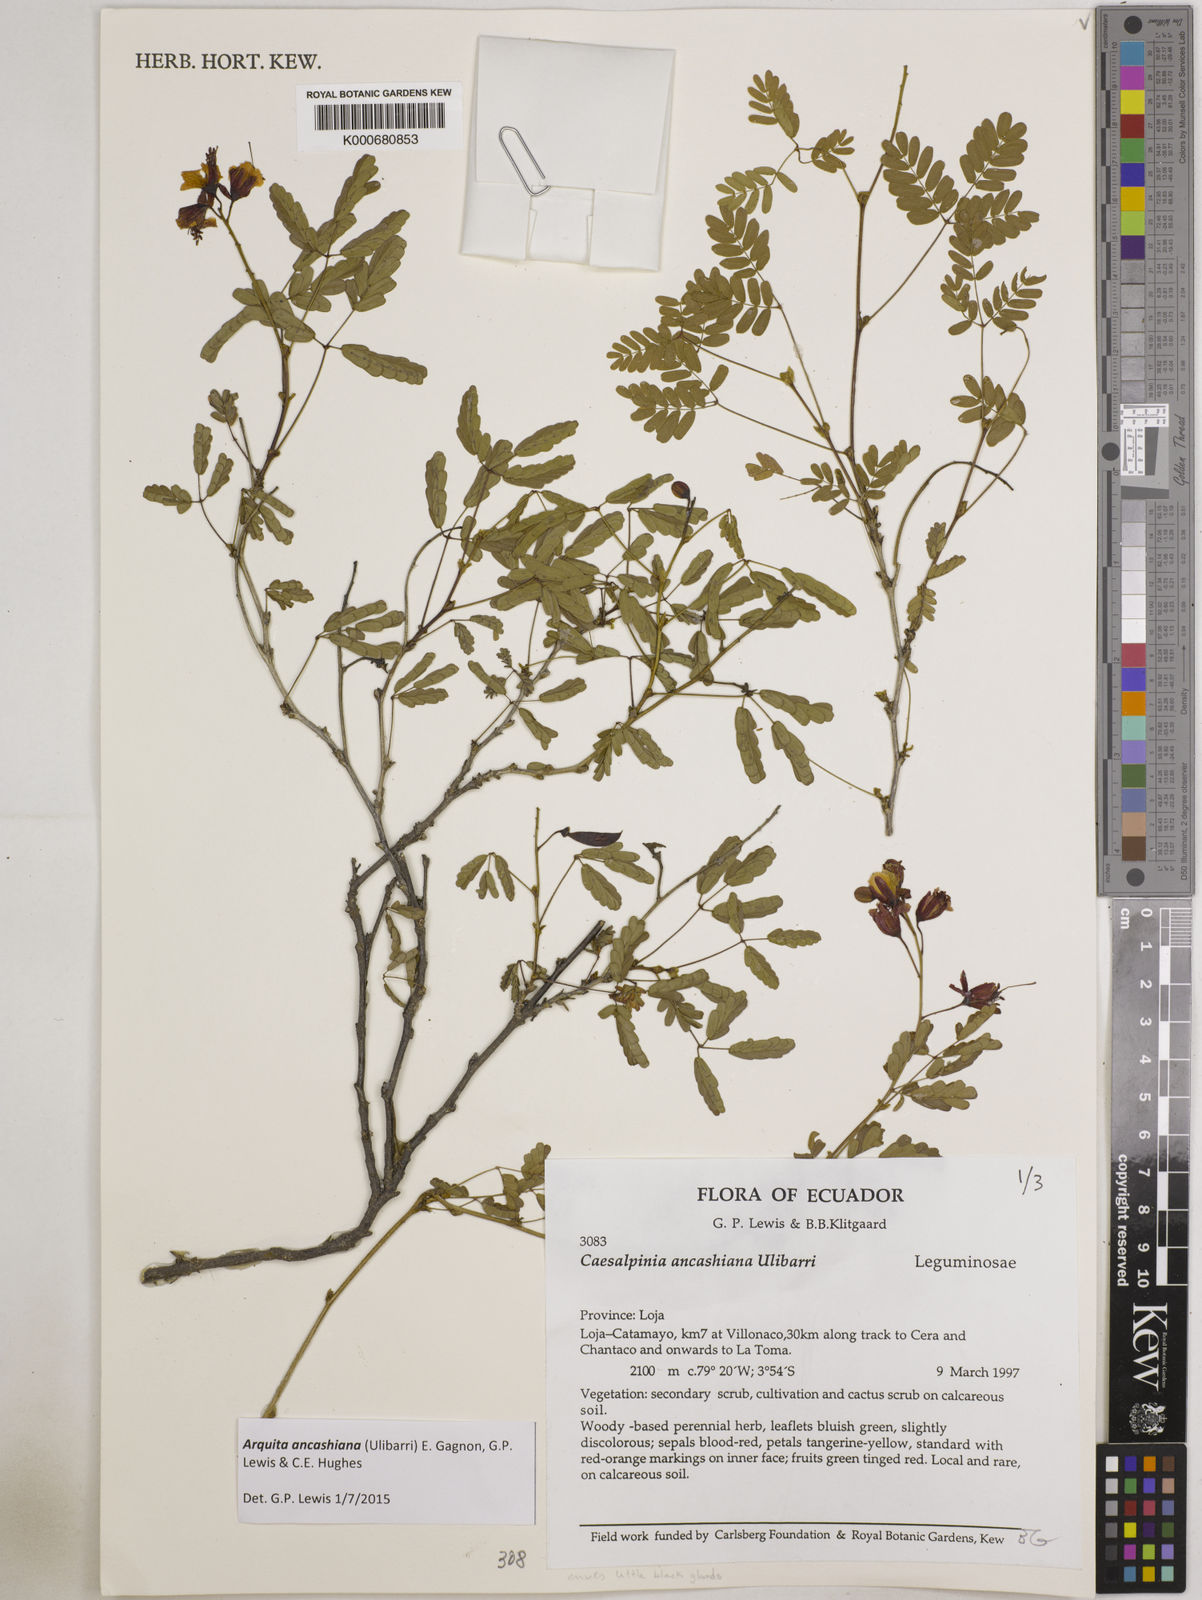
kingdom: Plantae
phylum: Tracheophyta
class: Magnoliopsida
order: Fabales
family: Fabaceae
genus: Arquita
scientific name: Arquita ancashiana
